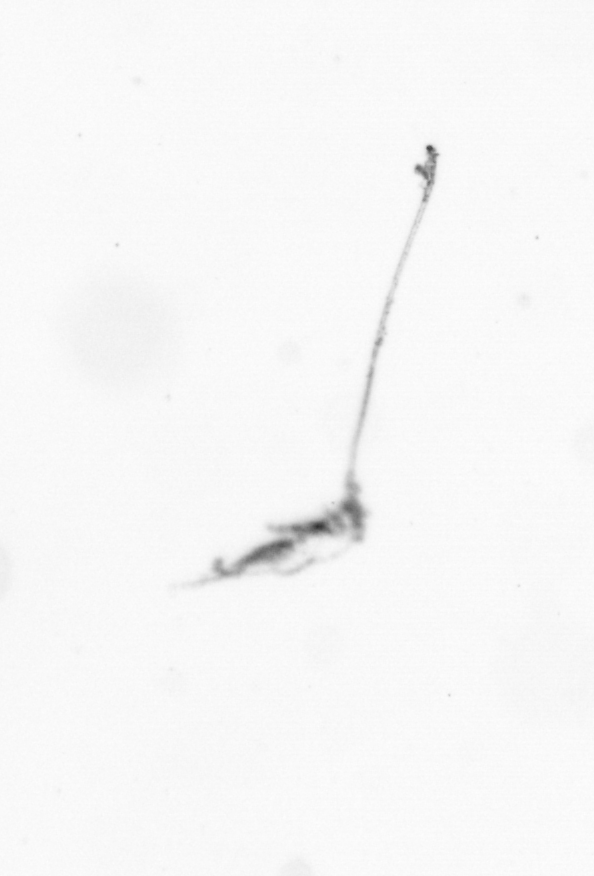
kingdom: Animalia
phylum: Arthropoda
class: Copepoda
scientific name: Copepoda
